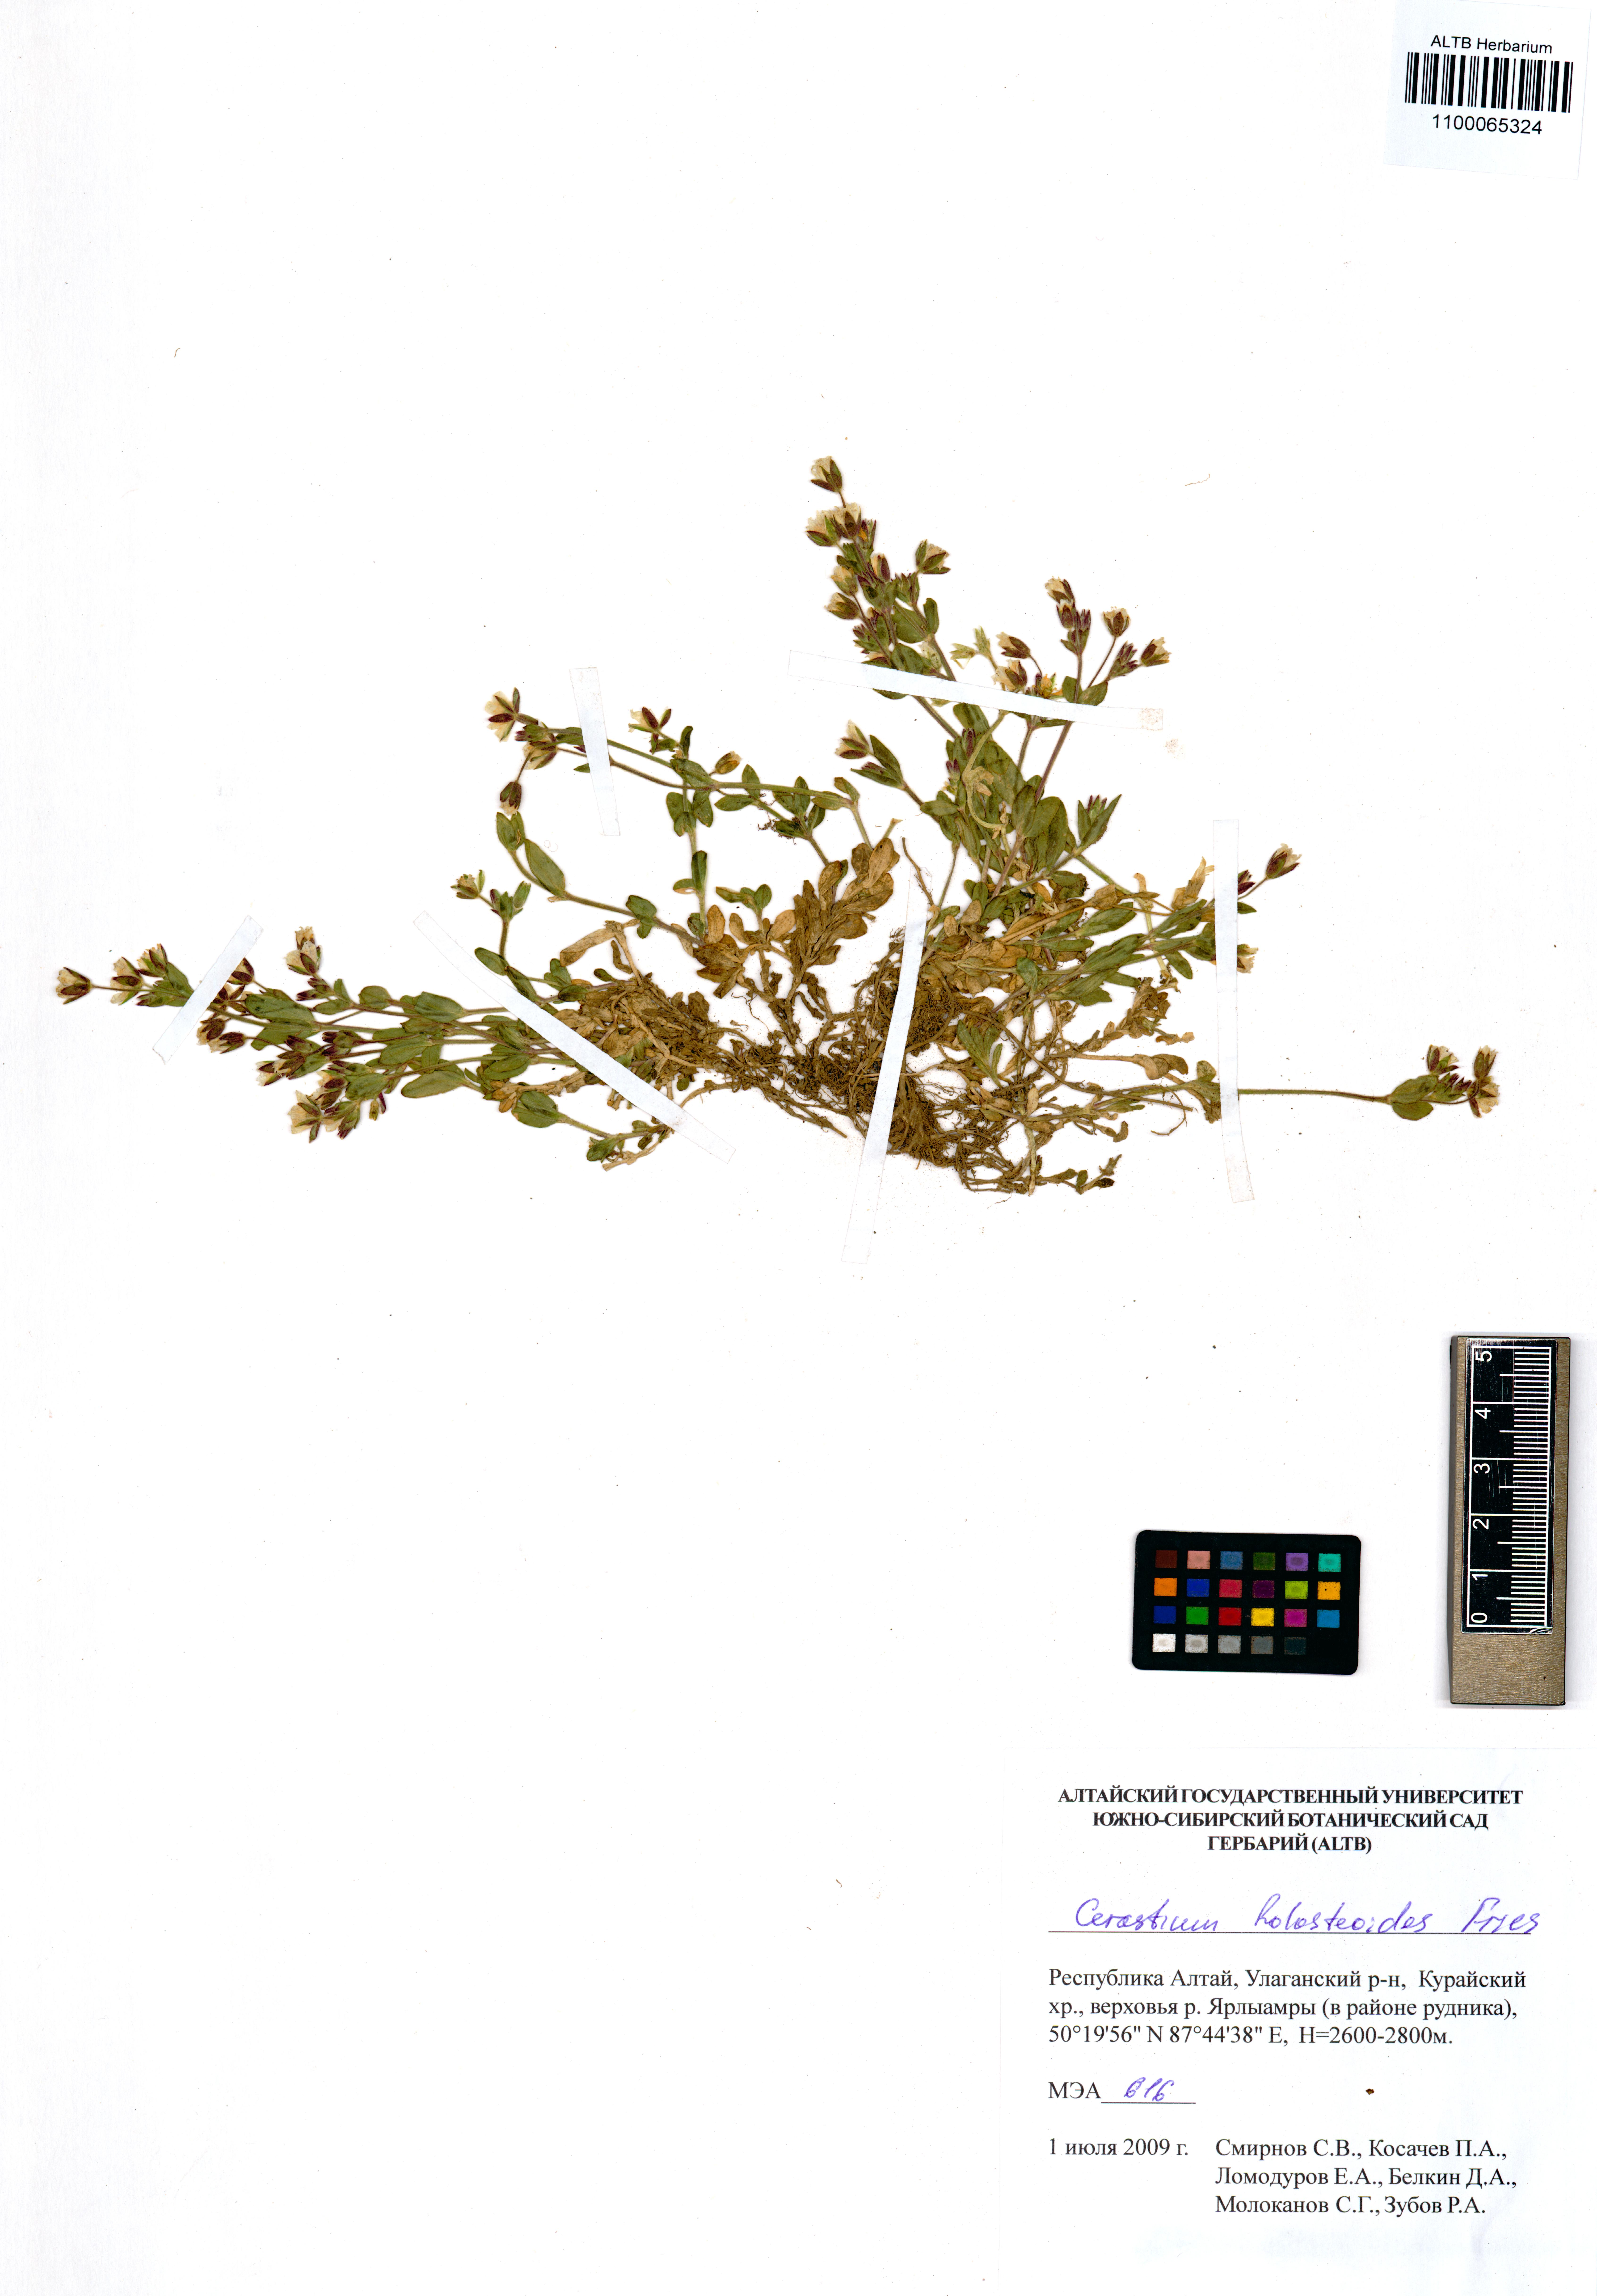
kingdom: Plantae
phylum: Tracheophyta
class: Magnoliopsida
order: Caryophyllales
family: Caryophyllaceae
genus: Cerastium
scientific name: Cerastium holosteoides
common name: Big chickweed
